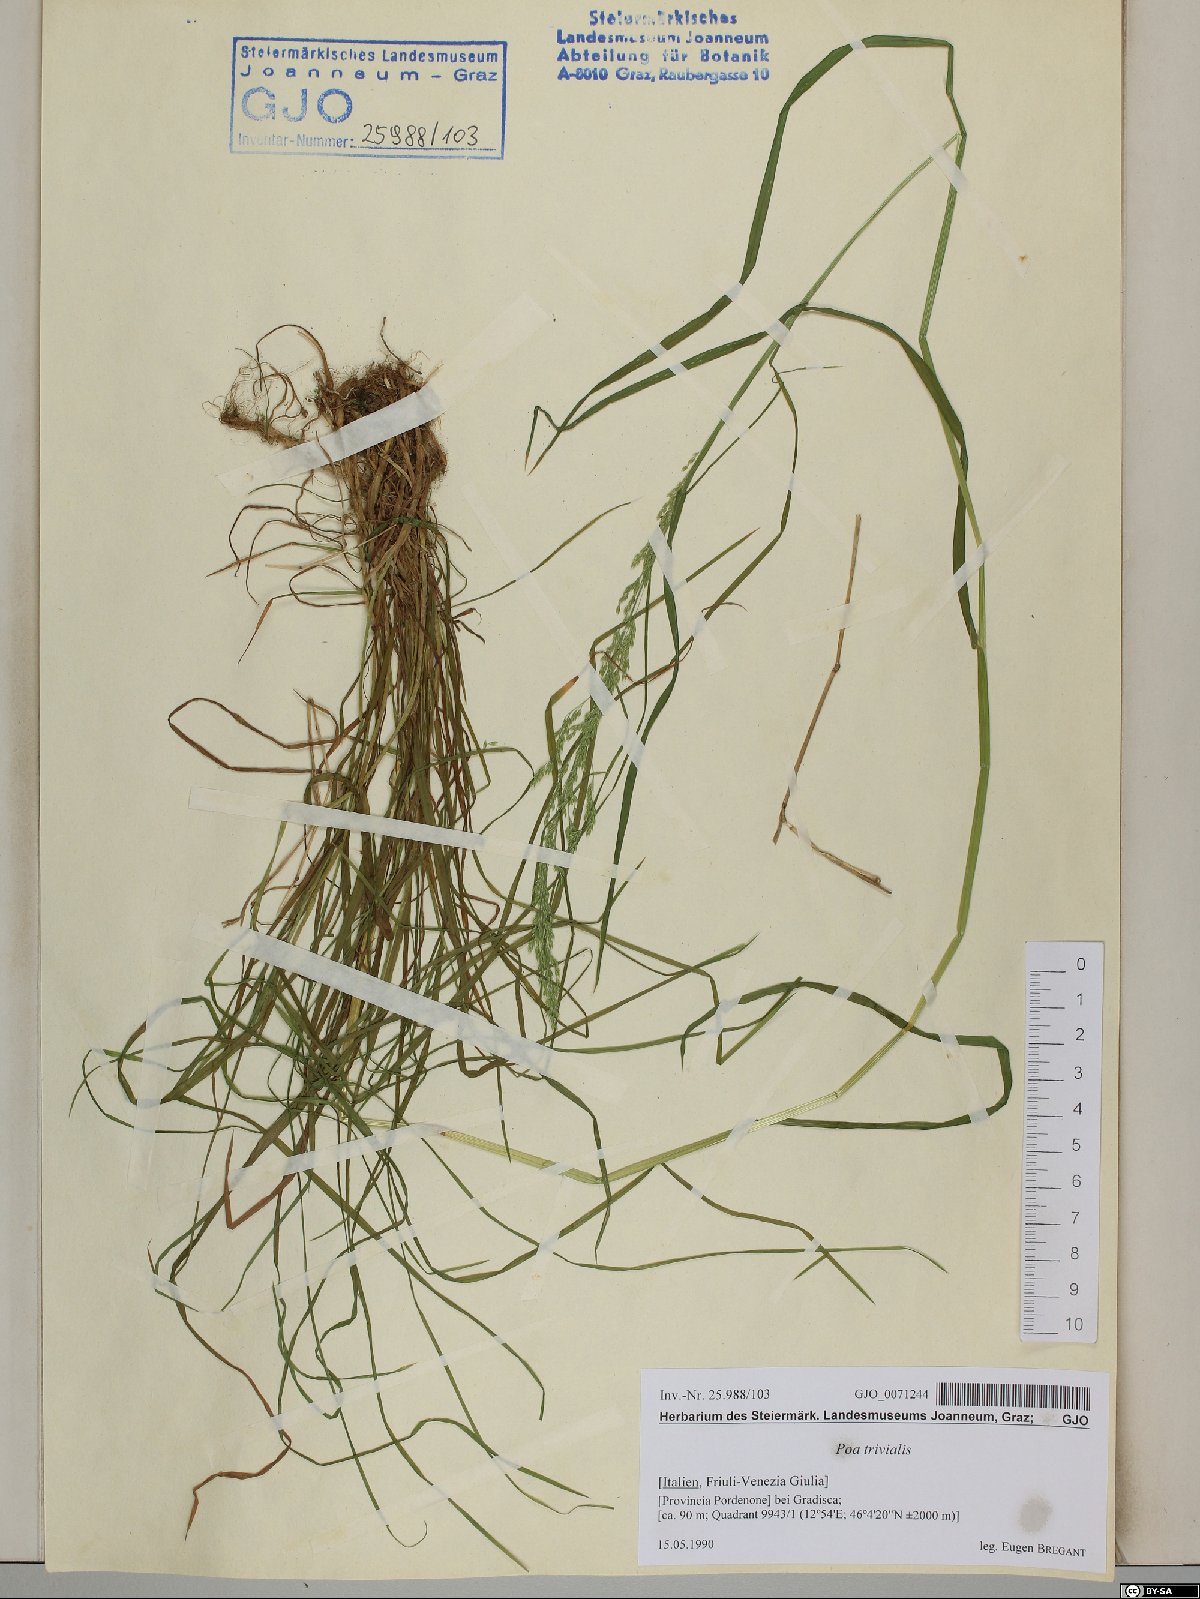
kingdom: Plantae
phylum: Tracheophyta
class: Liliopsida
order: Poales
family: Poaceae
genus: Poa
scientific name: Poa trivialis
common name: Rough bluegrass
